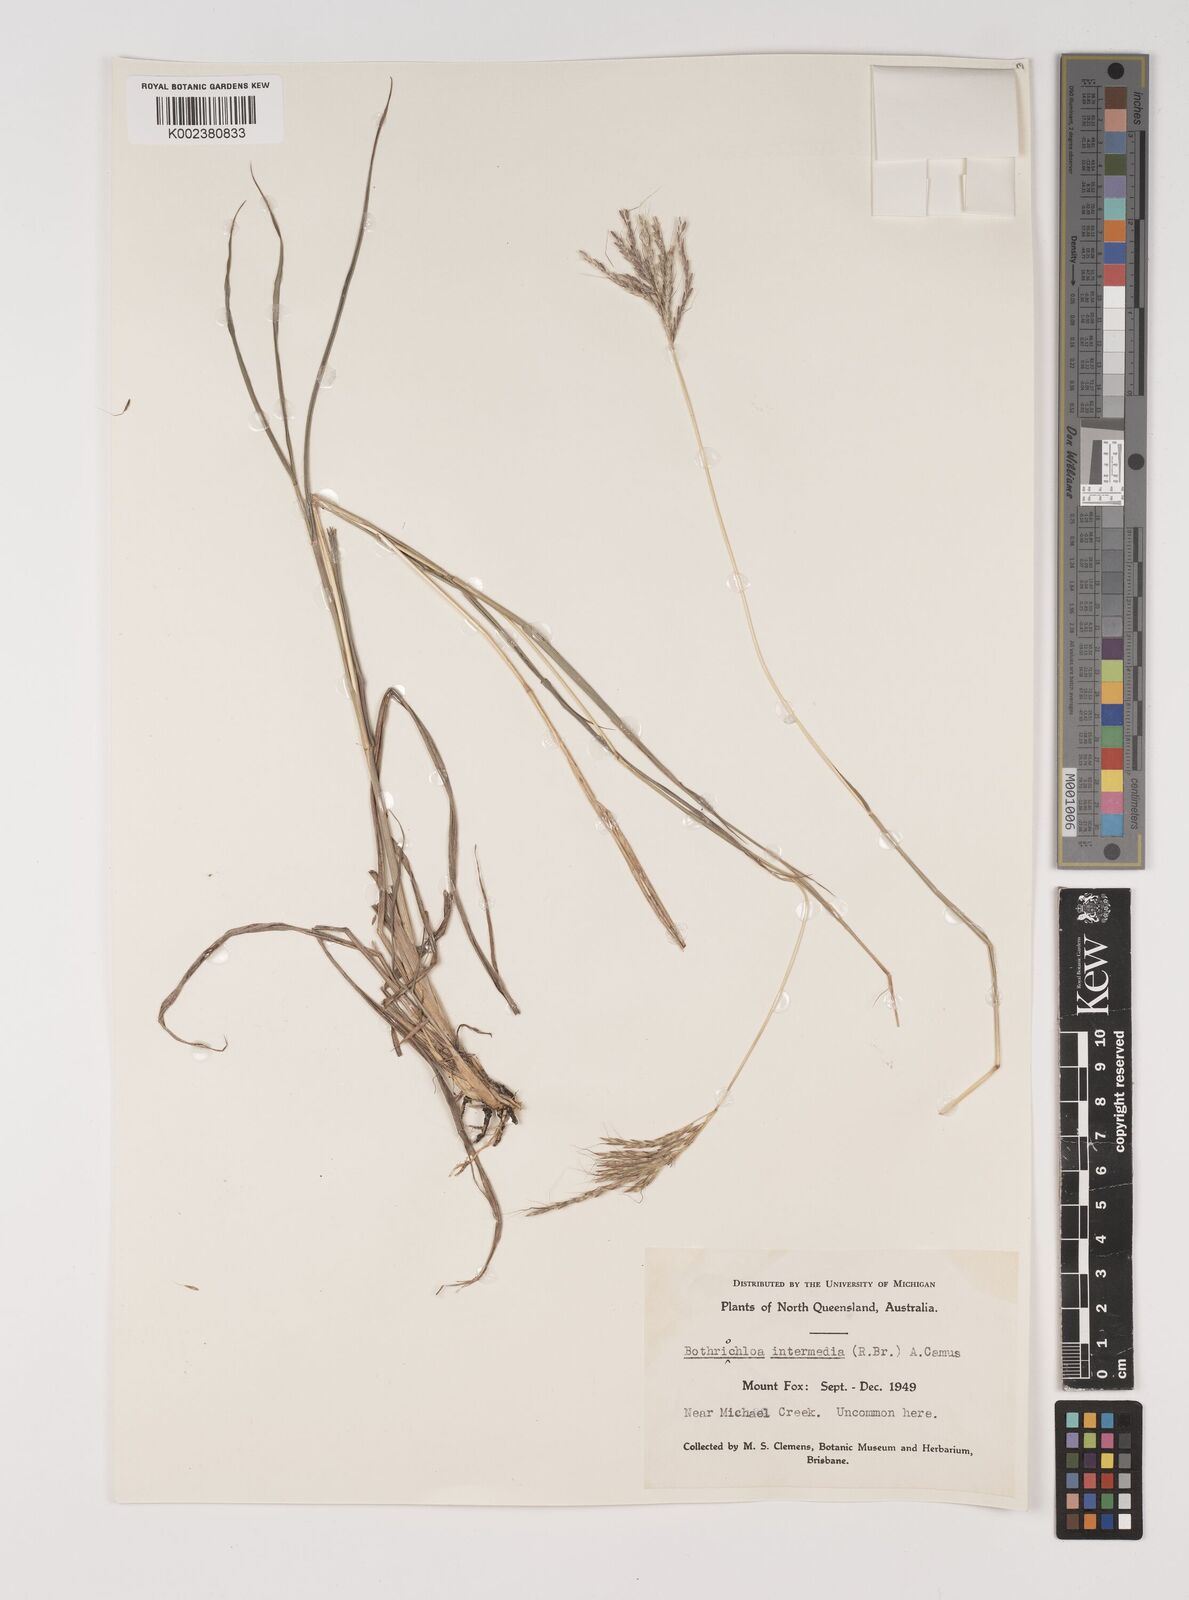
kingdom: Plantae
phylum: Tracheophyta
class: Liliopsida
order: Poales
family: Poaceae
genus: Bothriochloa
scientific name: Bothriochloa bladhii
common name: Caucasian bluestem
